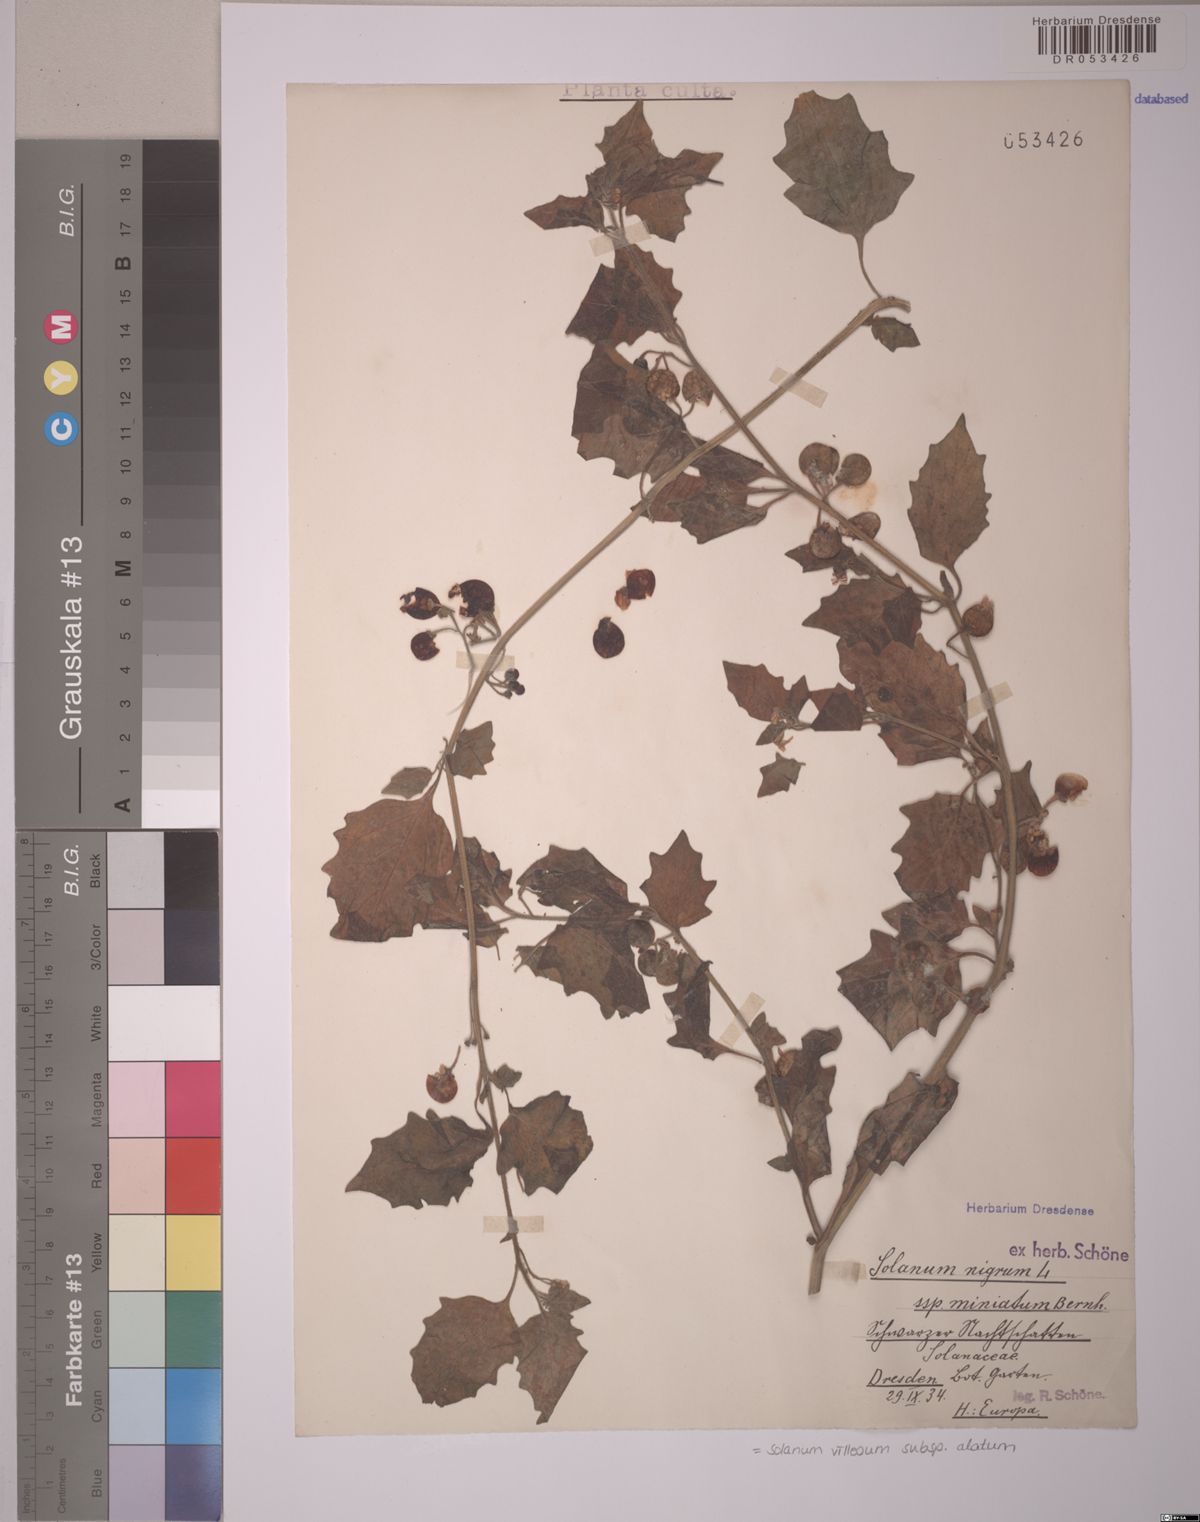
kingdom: Plantae
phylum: Tracheophyta
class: Magnoliopsida
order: Solanales
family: Solanaceae
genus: Solanum
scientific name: Solanum alatum
